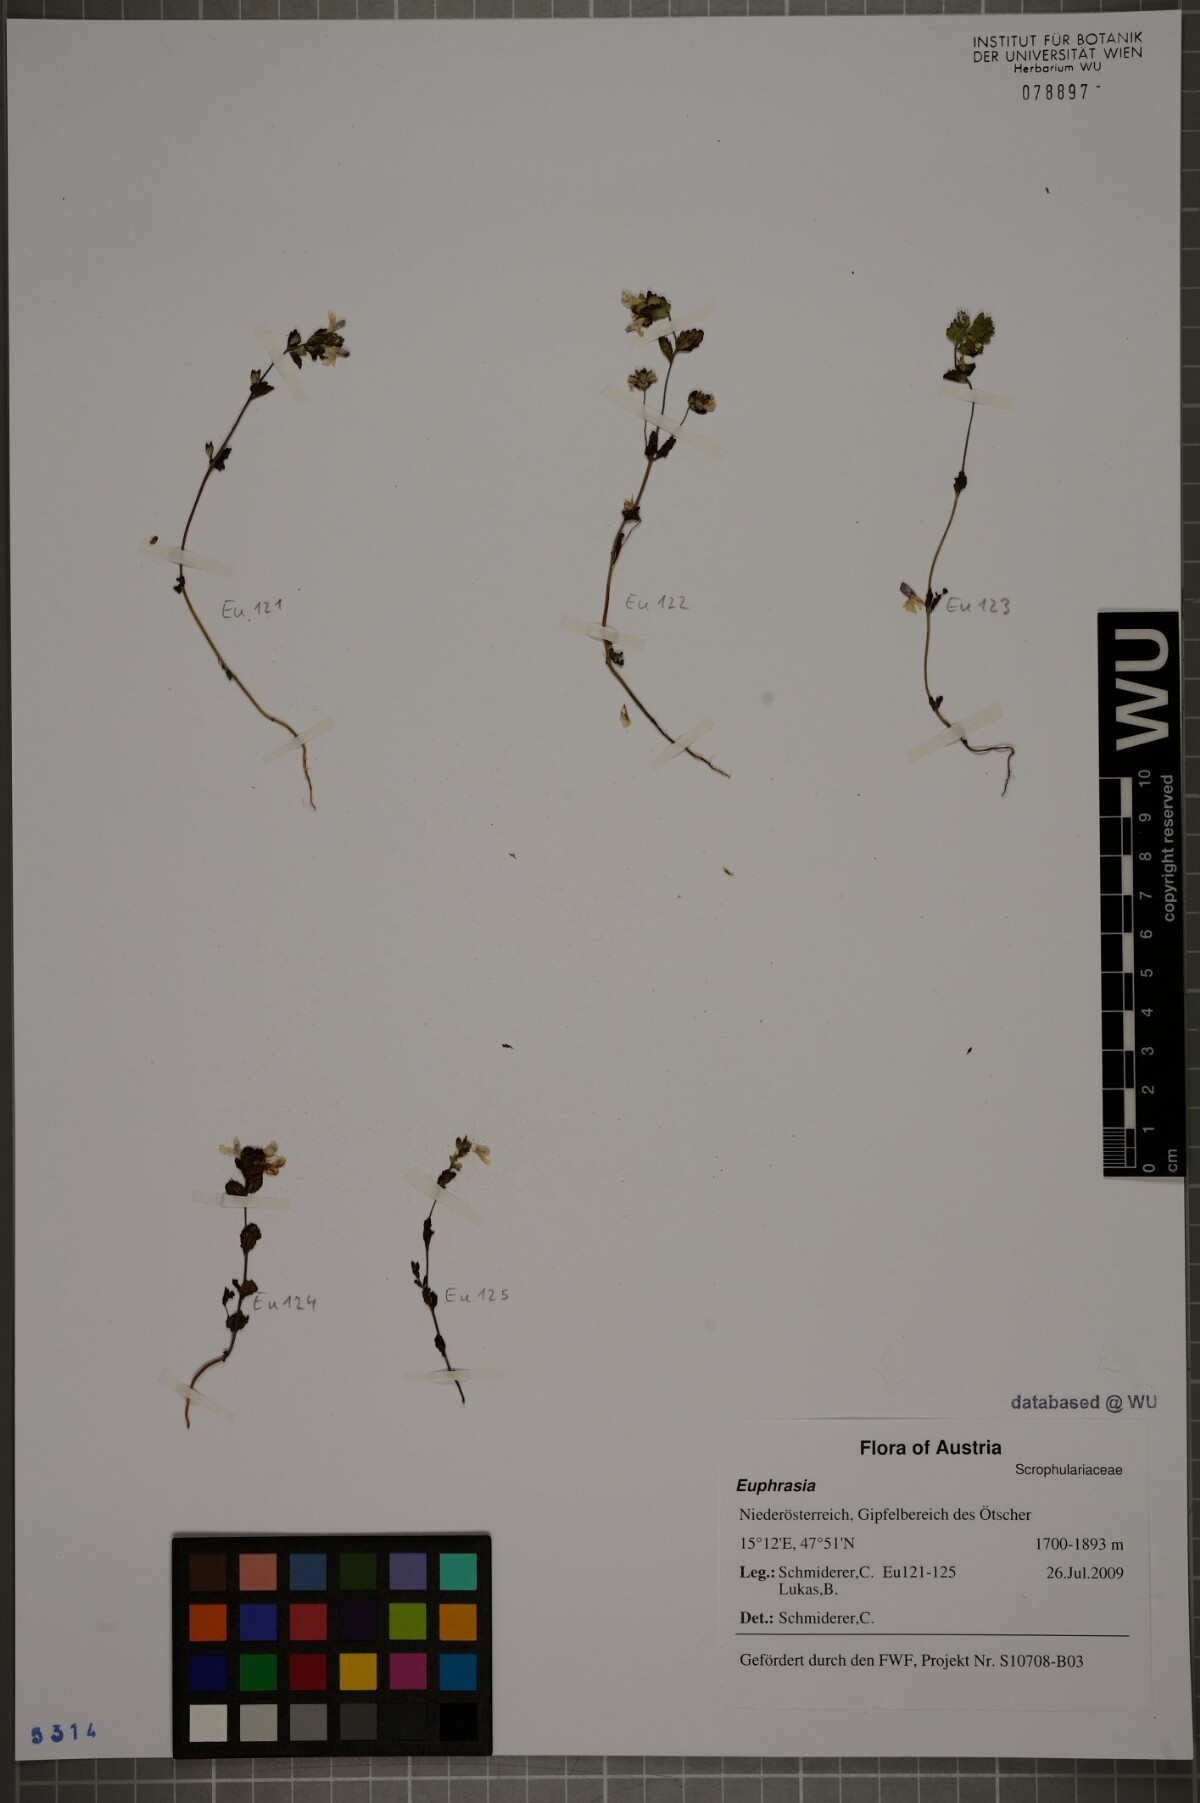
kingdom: Plantae
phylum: Tracheophyta
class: Magnoliopsida
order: Lamiales
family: Orobanchaceae
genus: Euphrasia
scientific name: Euphrasia
